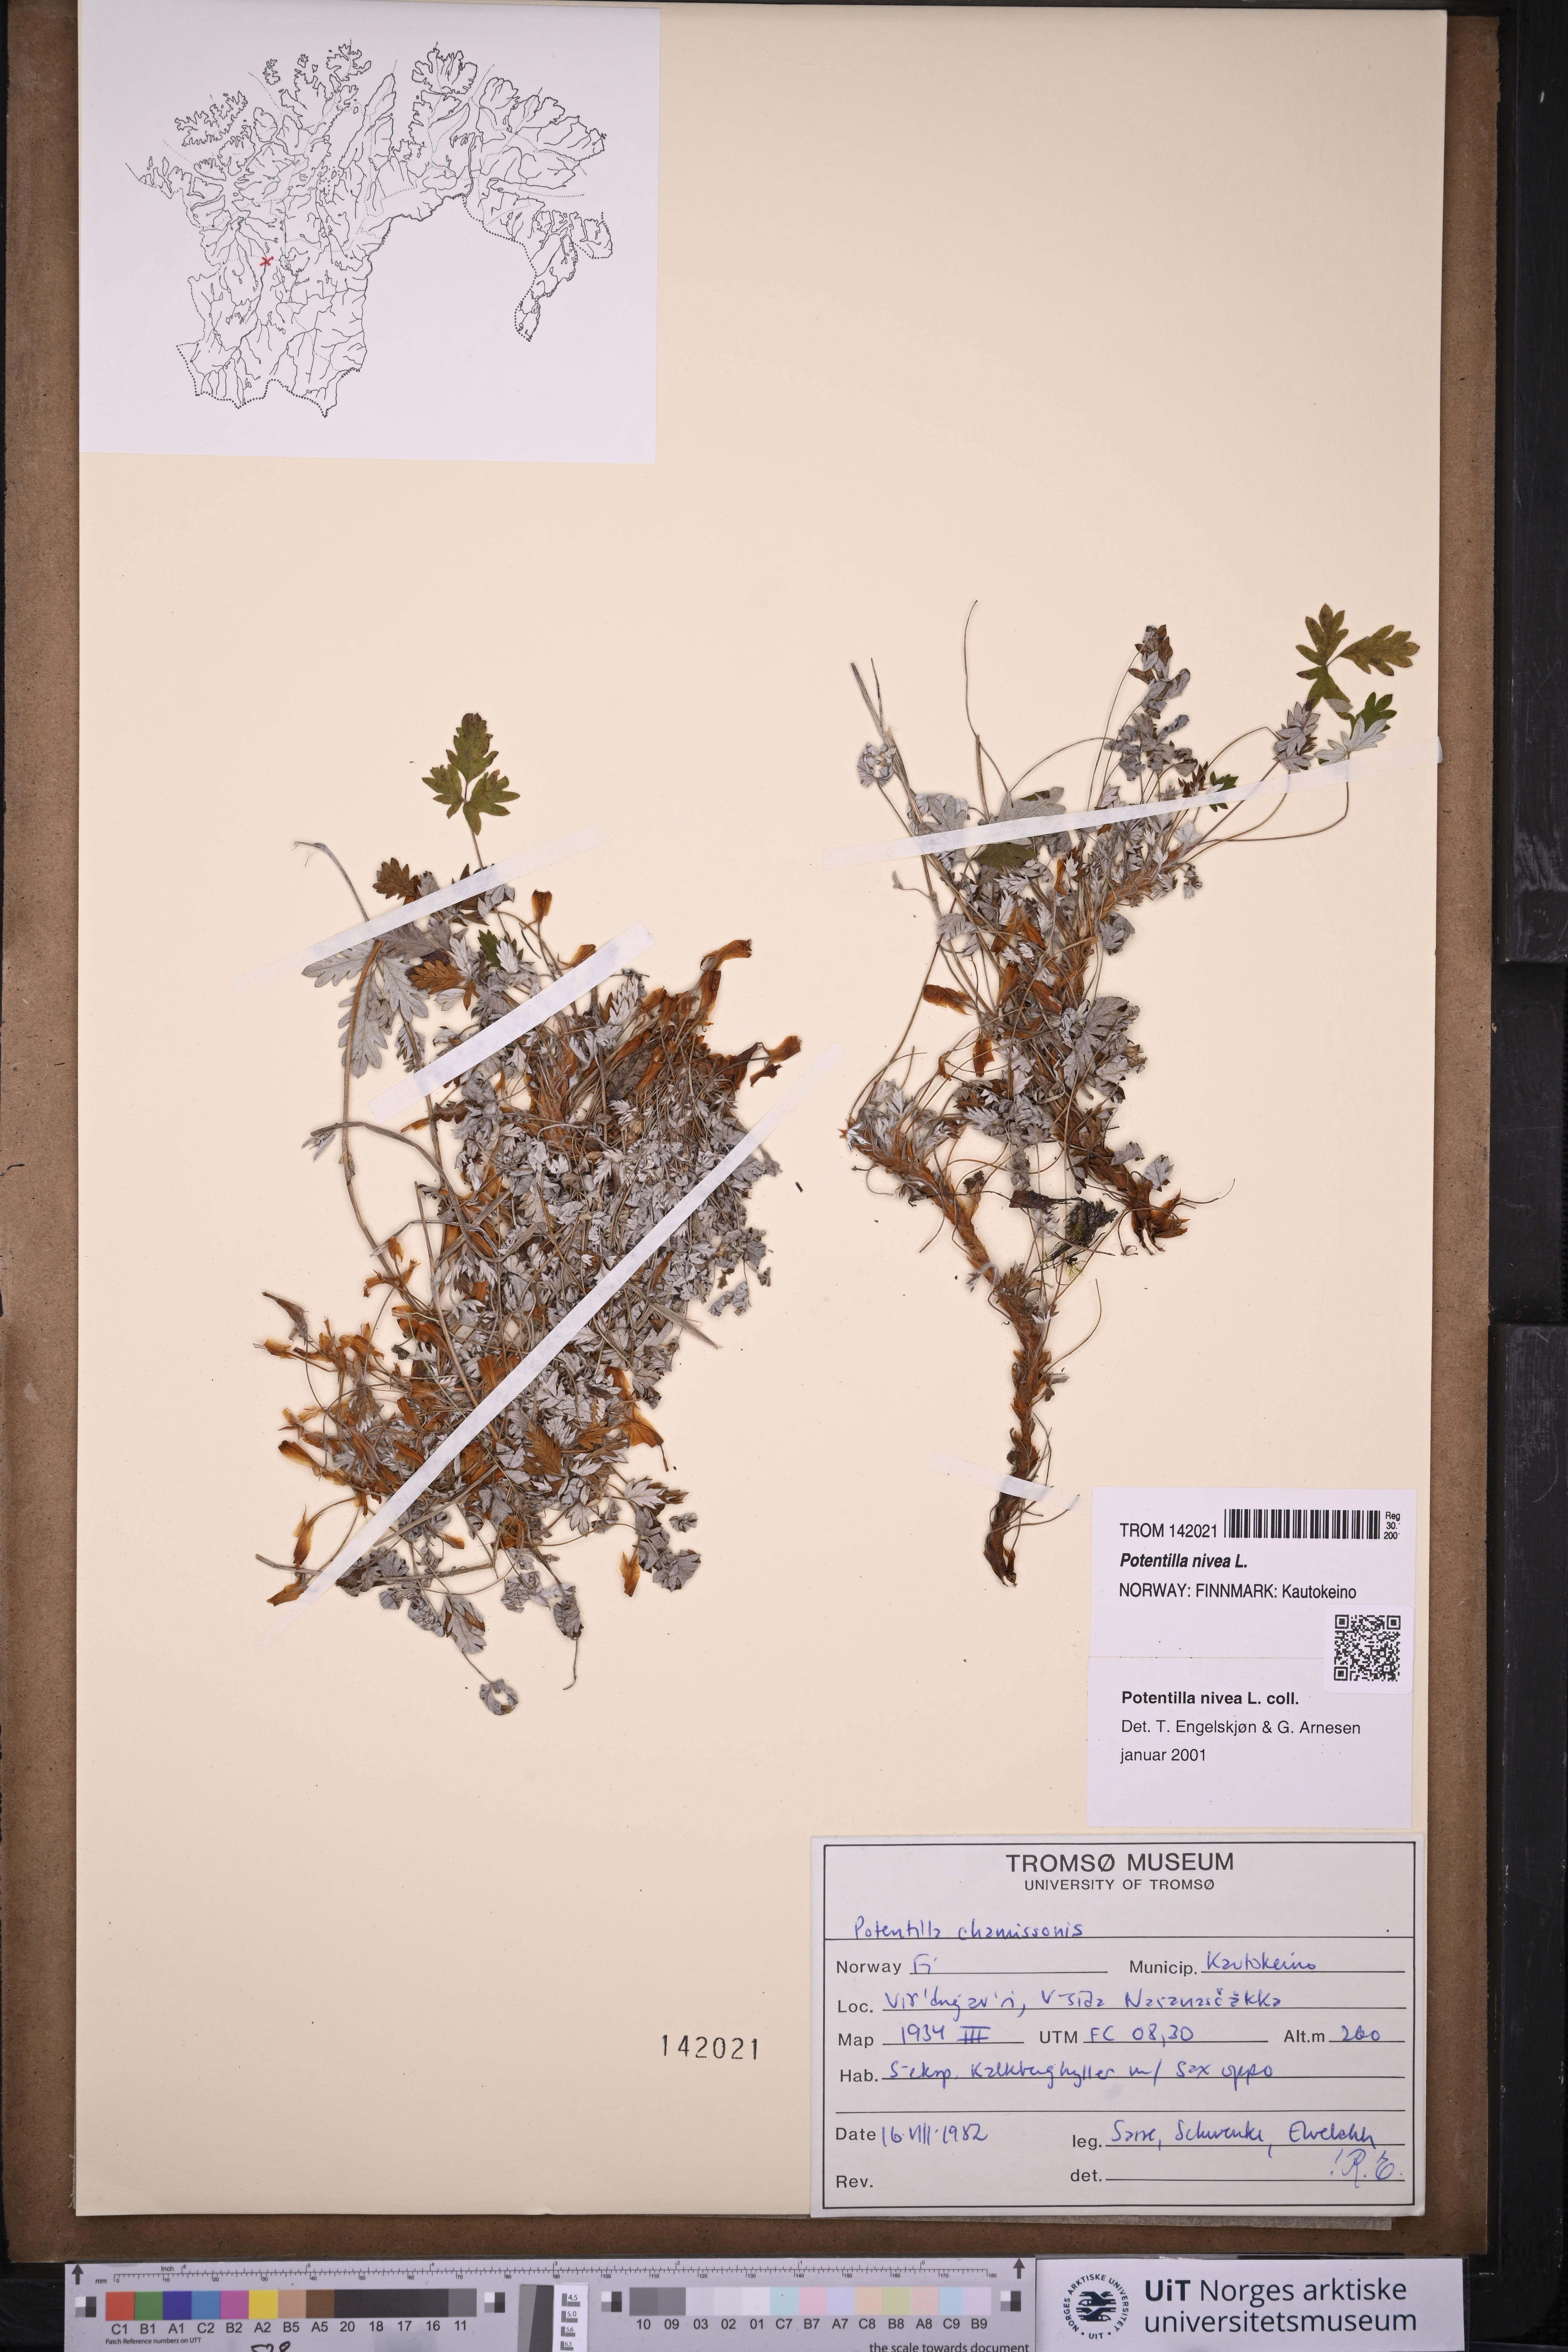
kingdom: Plantae
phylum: Tracheophyta
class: Magnoliopsida
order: Rosales
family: Rosaceae
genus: Potentilla
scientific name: Potentilla arenosa
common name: Bluff cinquefoil
